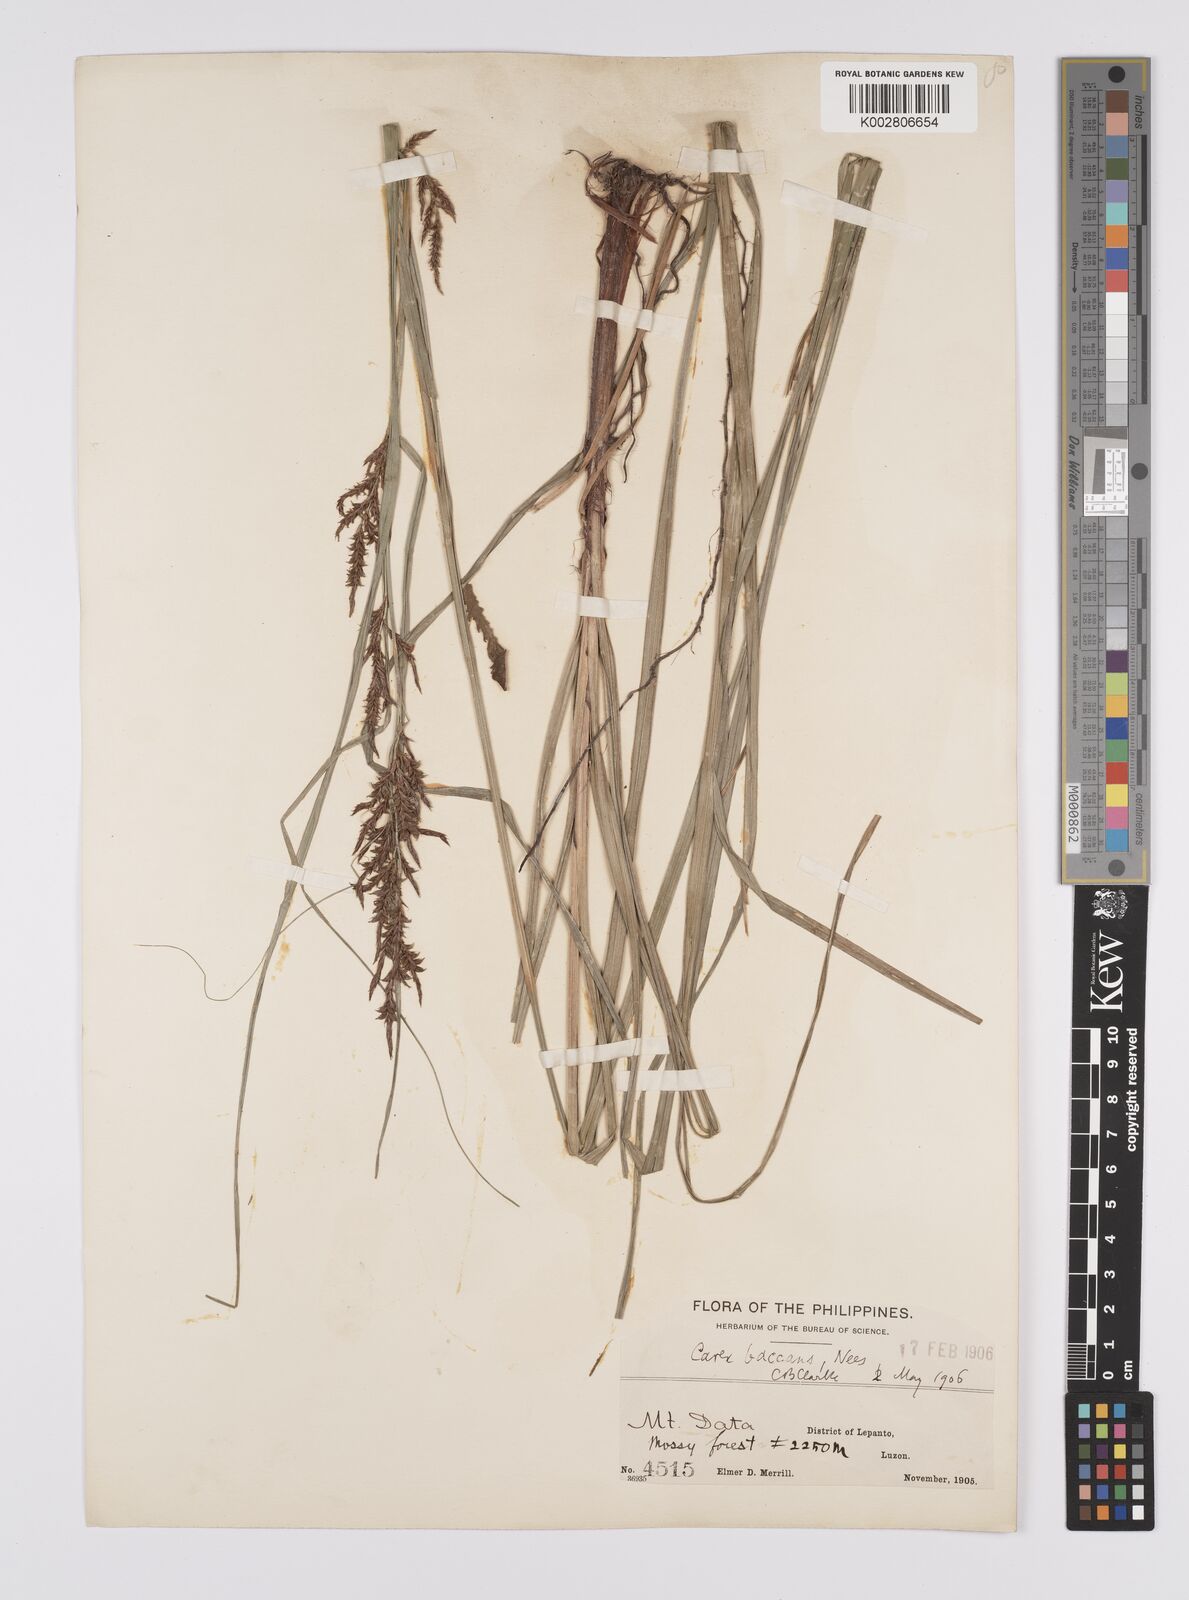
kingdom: Plantae
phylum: Tracheophyta
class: Liliopsida
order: Poales
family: Cyperaceae
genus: Carex
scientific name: Carex baccans
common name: Crimson seeded sedge
